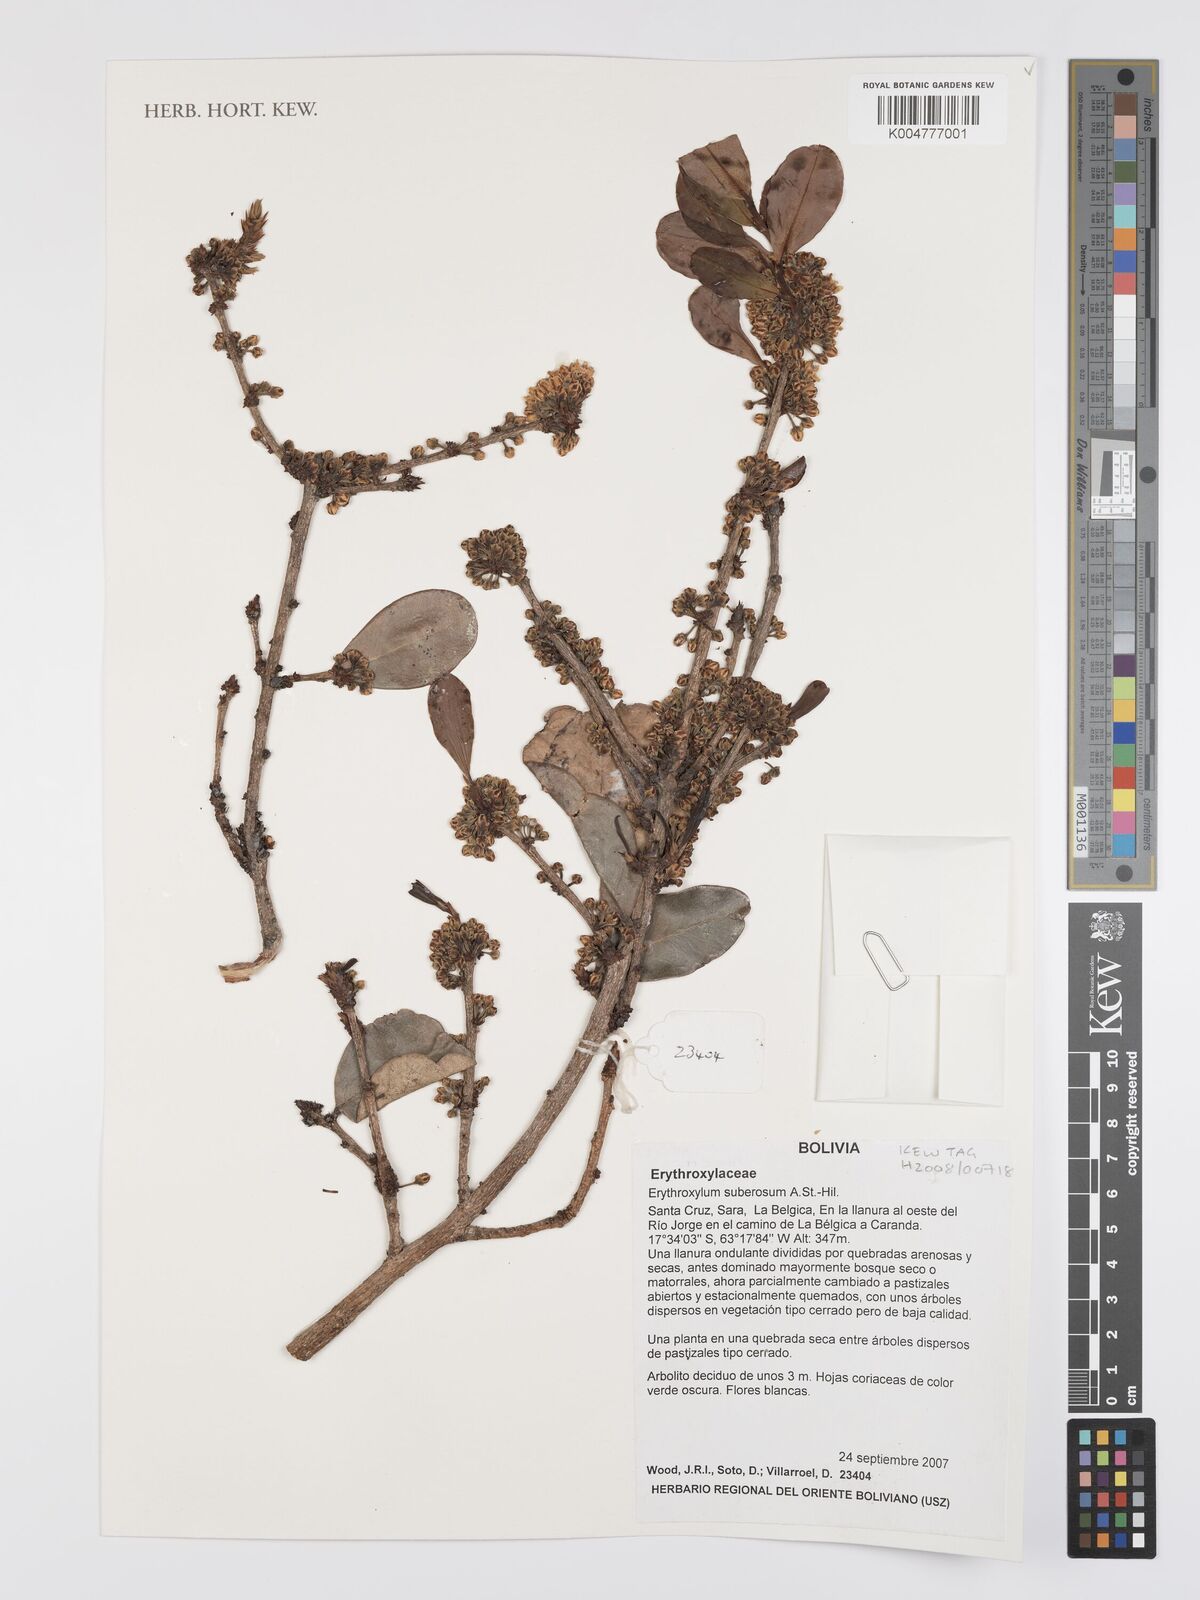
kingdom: Plantae
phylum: Tracheophyta
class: Magnoliopsida
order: Malpighiales
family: Erythroxylaceae
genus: Erythroxylum
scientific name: Erythroxylum suberosum
